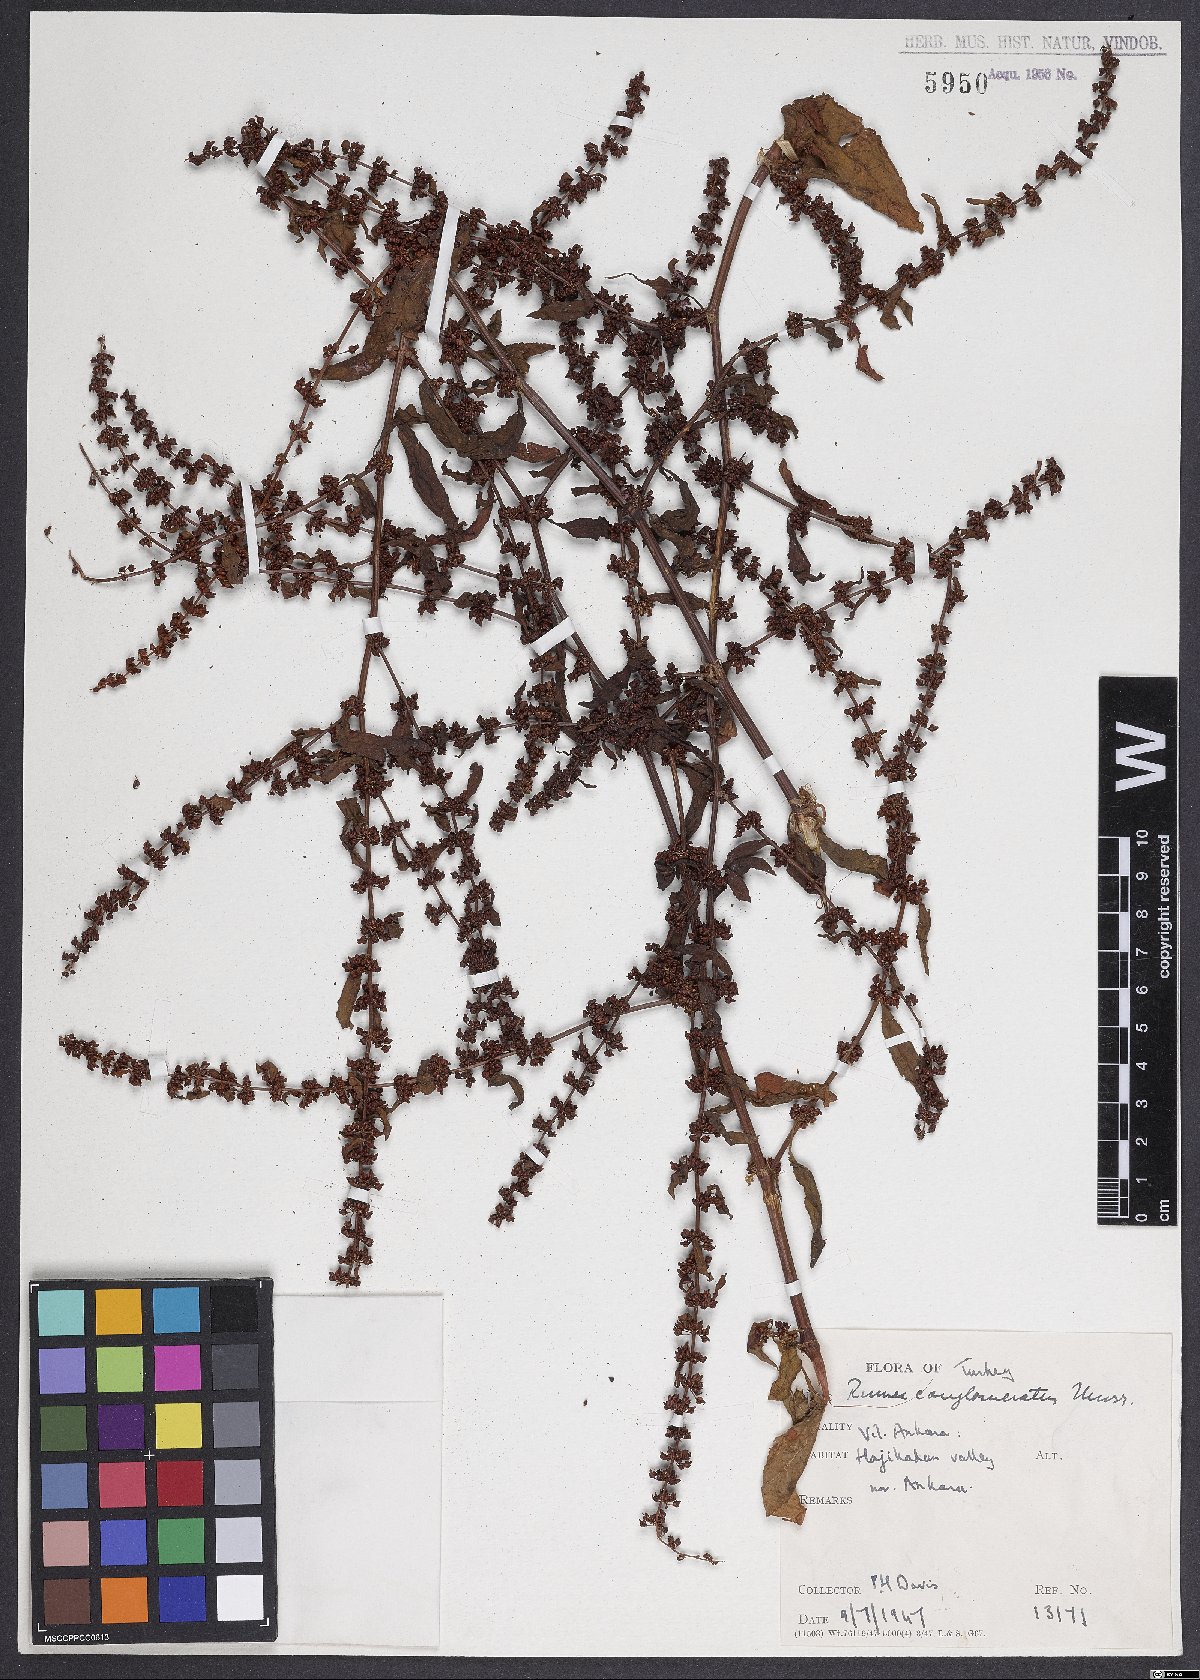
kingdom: Plantae
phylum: Tracheophyta
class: Magnoliopsida
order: Caryophyllales
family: Polygonaceae
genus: Rumex
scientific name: Rumex conglomeratus
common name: Clustered dock
